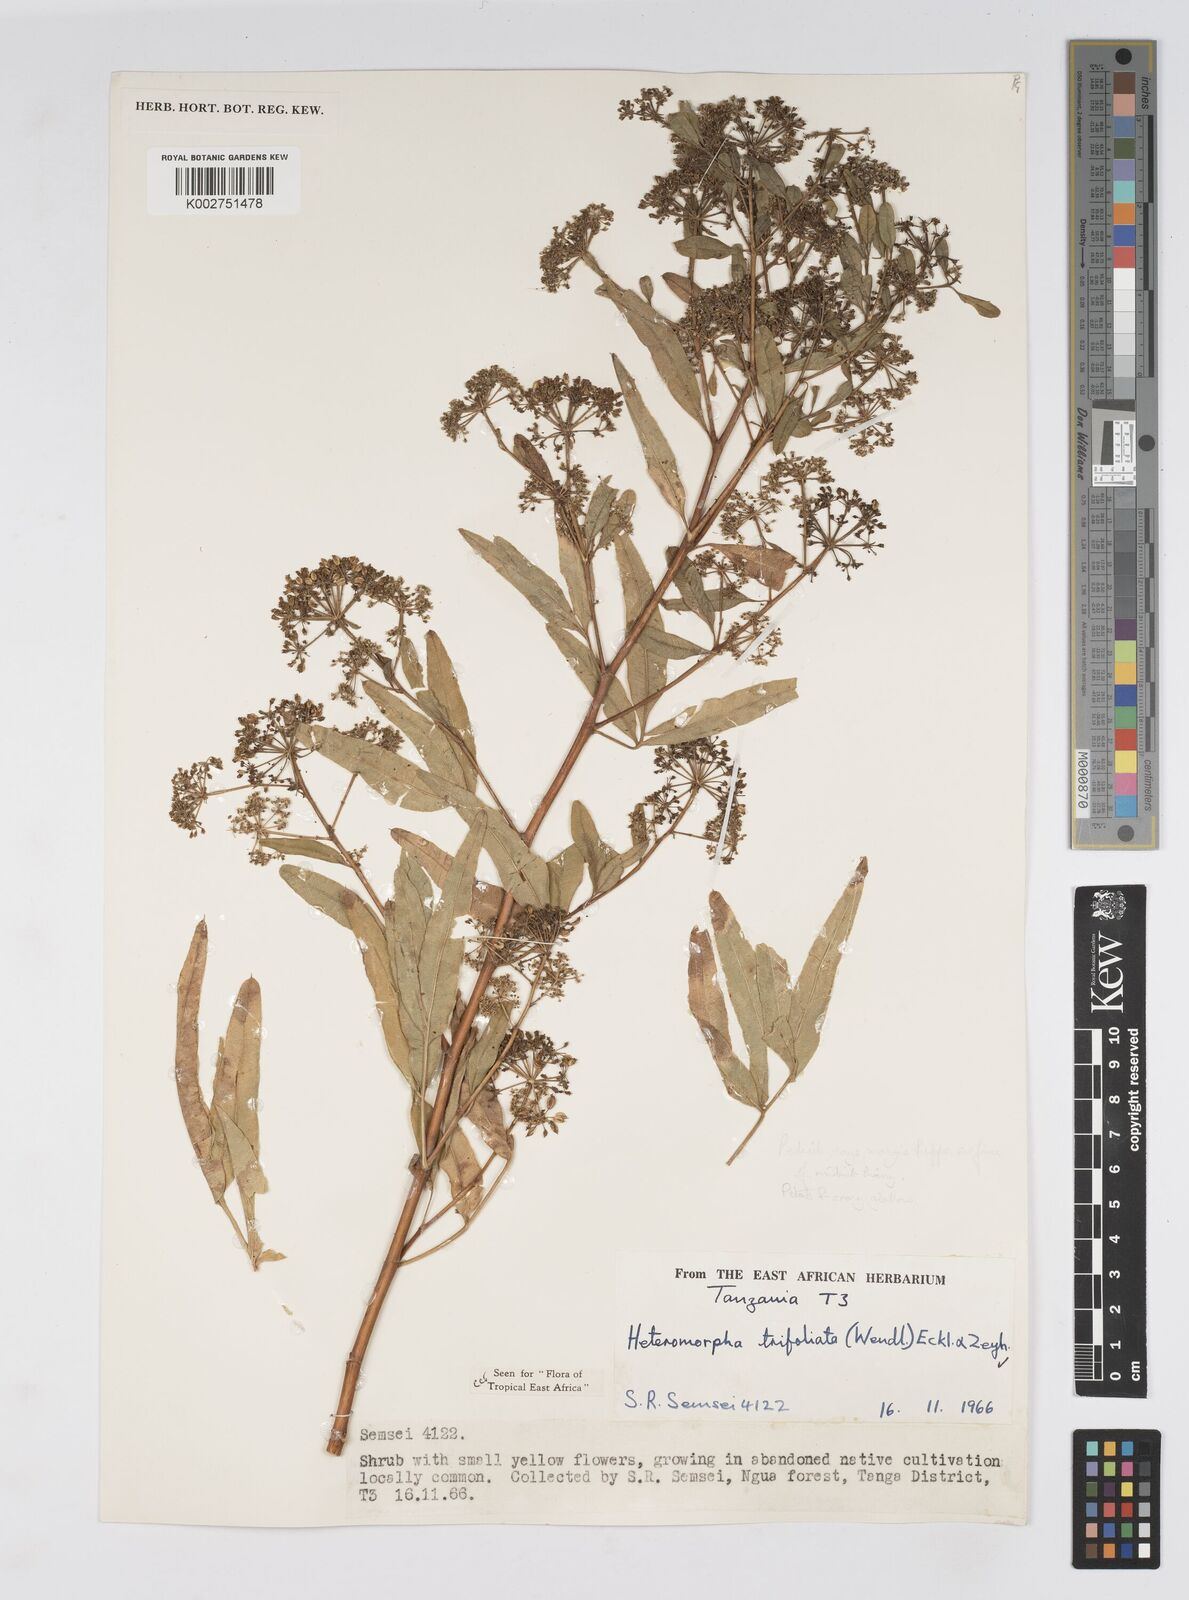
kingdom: Plantae
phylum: Tracheophyta
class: Magnoliopsida
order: Apiales
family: Apiaceae
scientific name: Apiaceae
